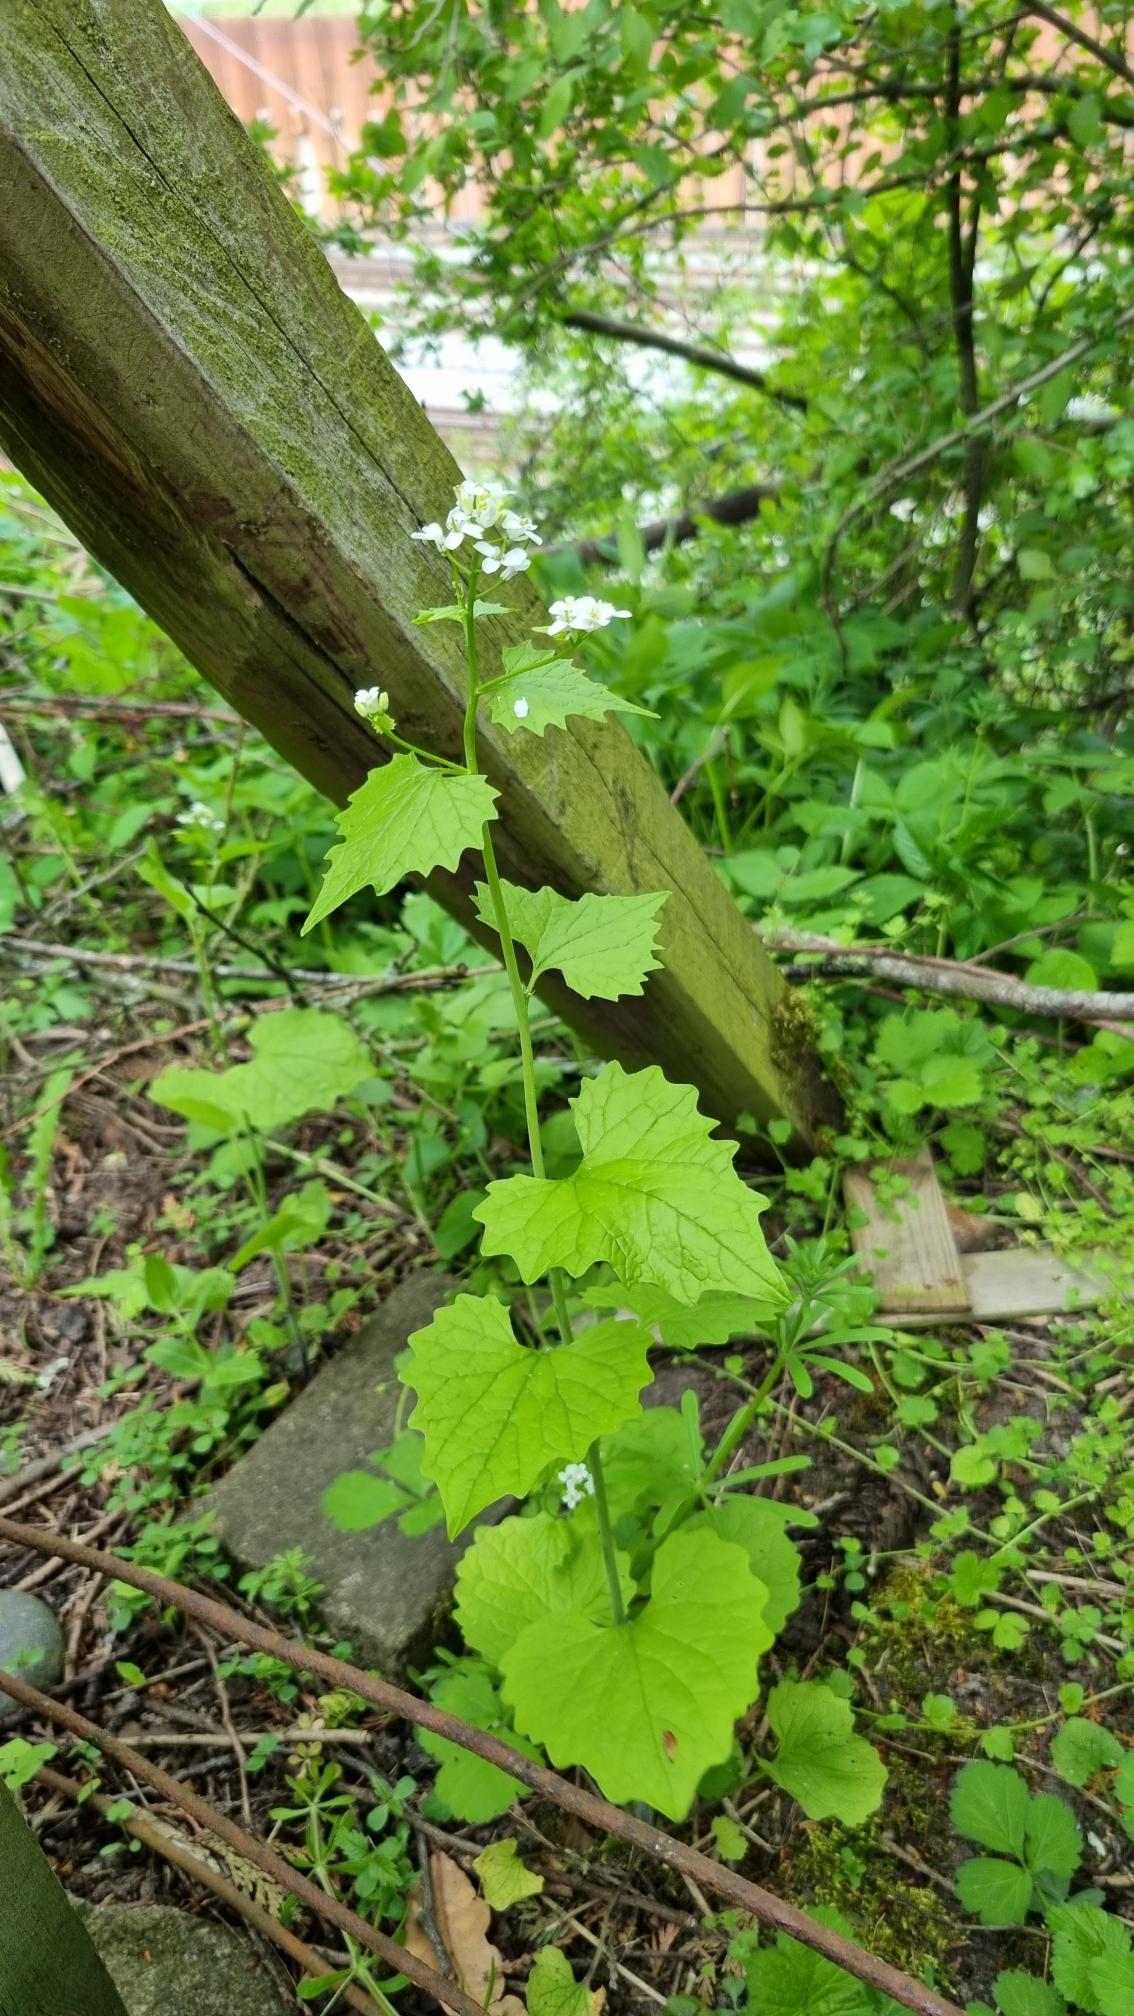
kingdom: Plantae
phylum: Tracheophyta
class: Magnoliopsida
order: Brassicales
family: Brassicaceae
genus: Alliaria
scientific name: Alliaria petiolata
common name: Løgkarse
